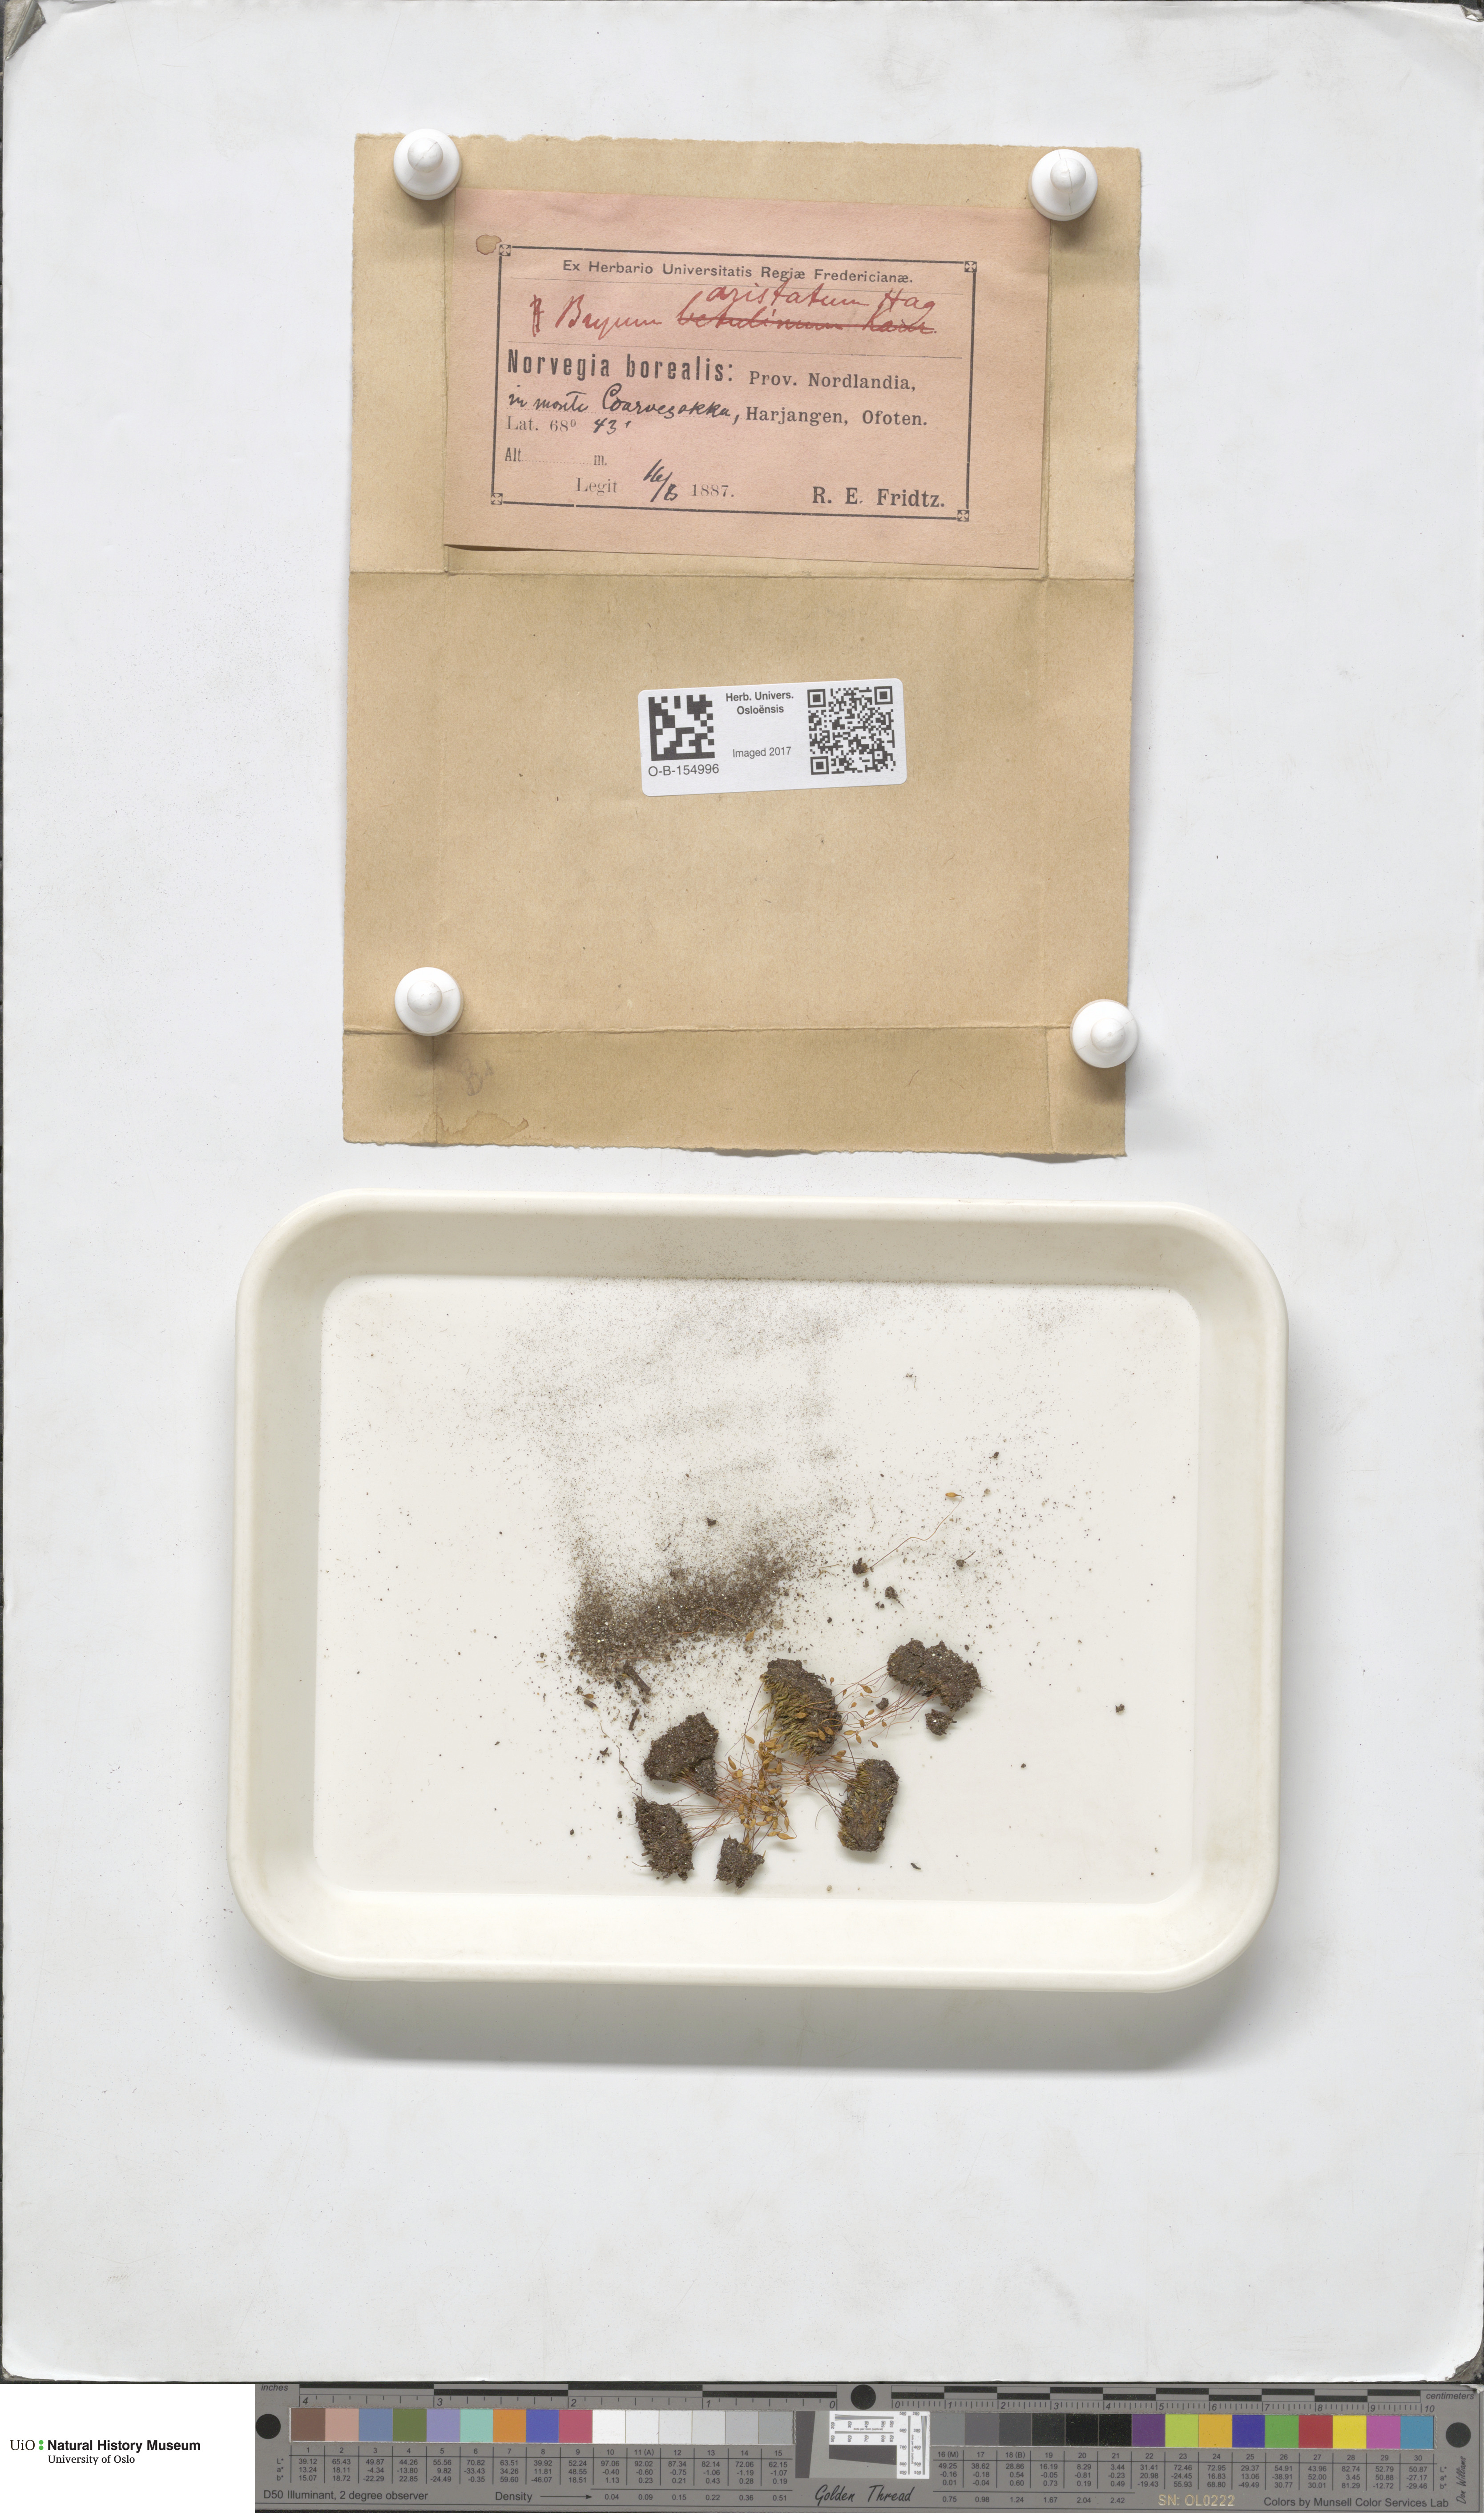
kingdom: Plantae
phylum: Bryophyta
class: Bryopsida
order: Bryales
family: Bryaceae
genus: Ptychostomum
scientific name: Ptychostomum intermedium
